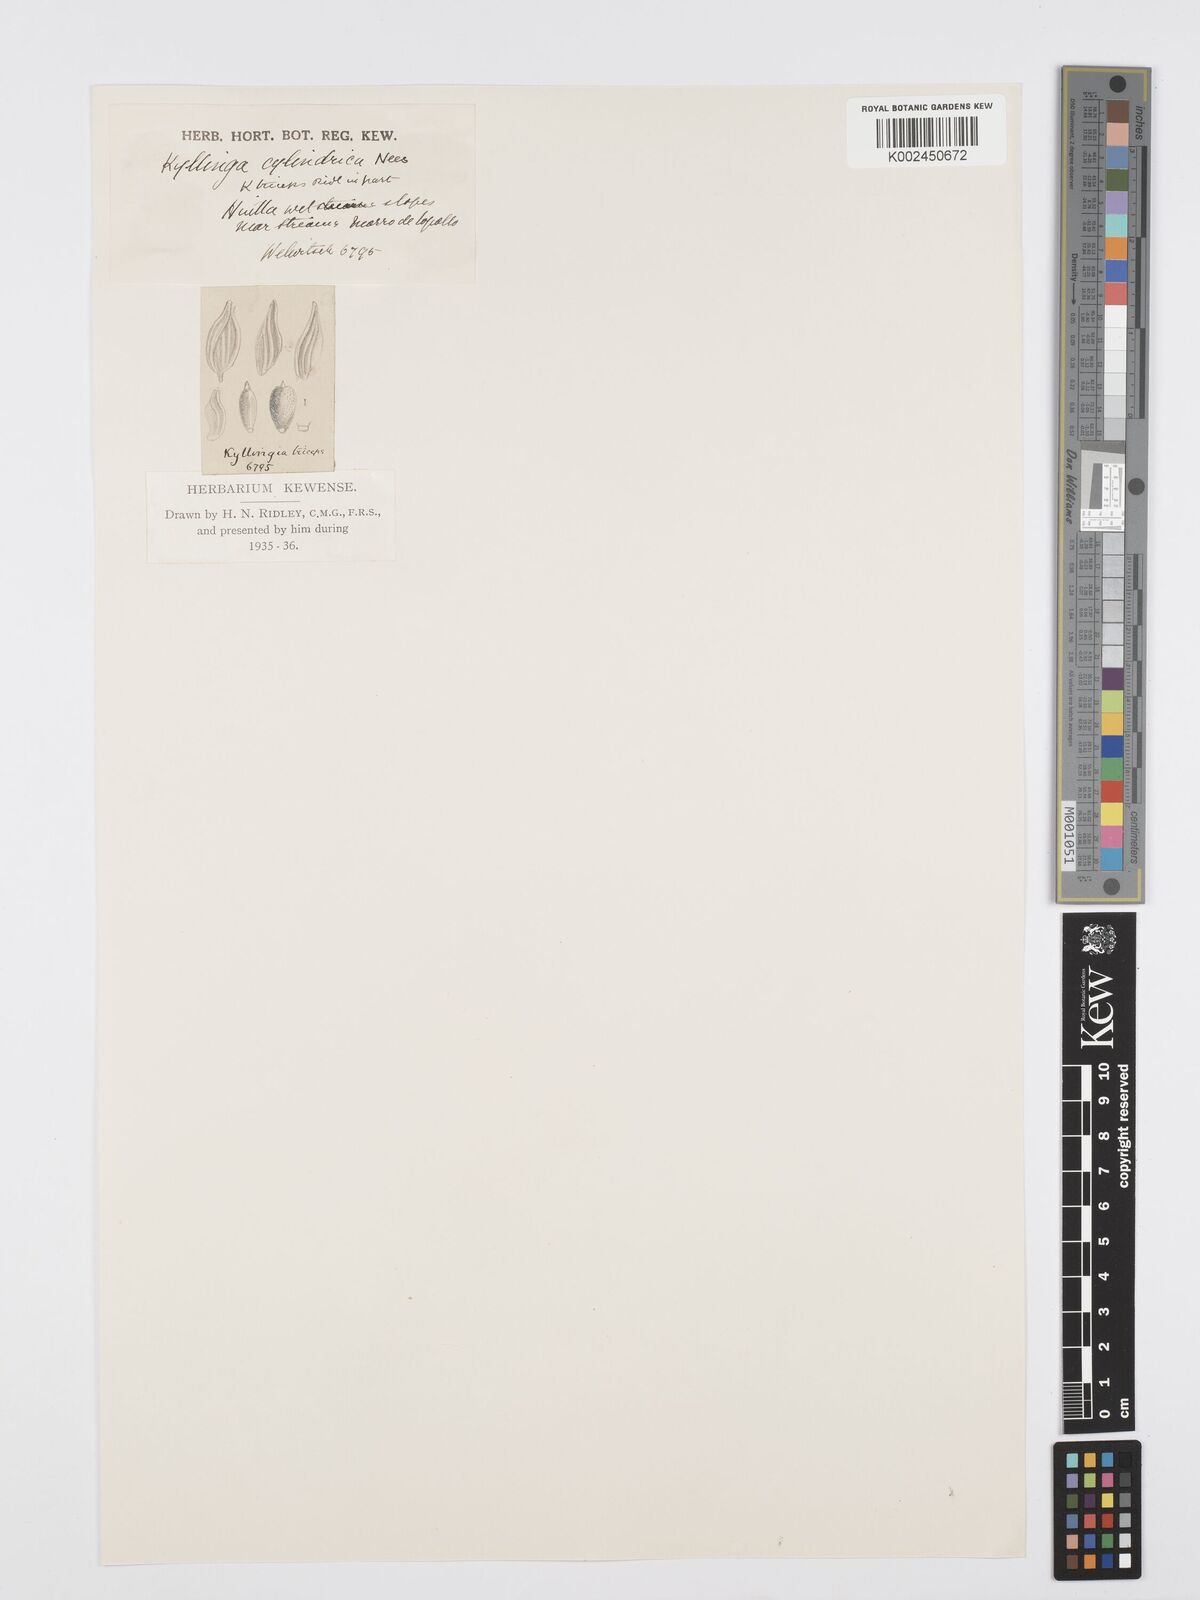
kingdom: Plantae
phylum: Tracheophyta
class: Liliopsida
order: Poales
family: Cyperaceae
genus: Cyperus
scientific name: Cyperus
